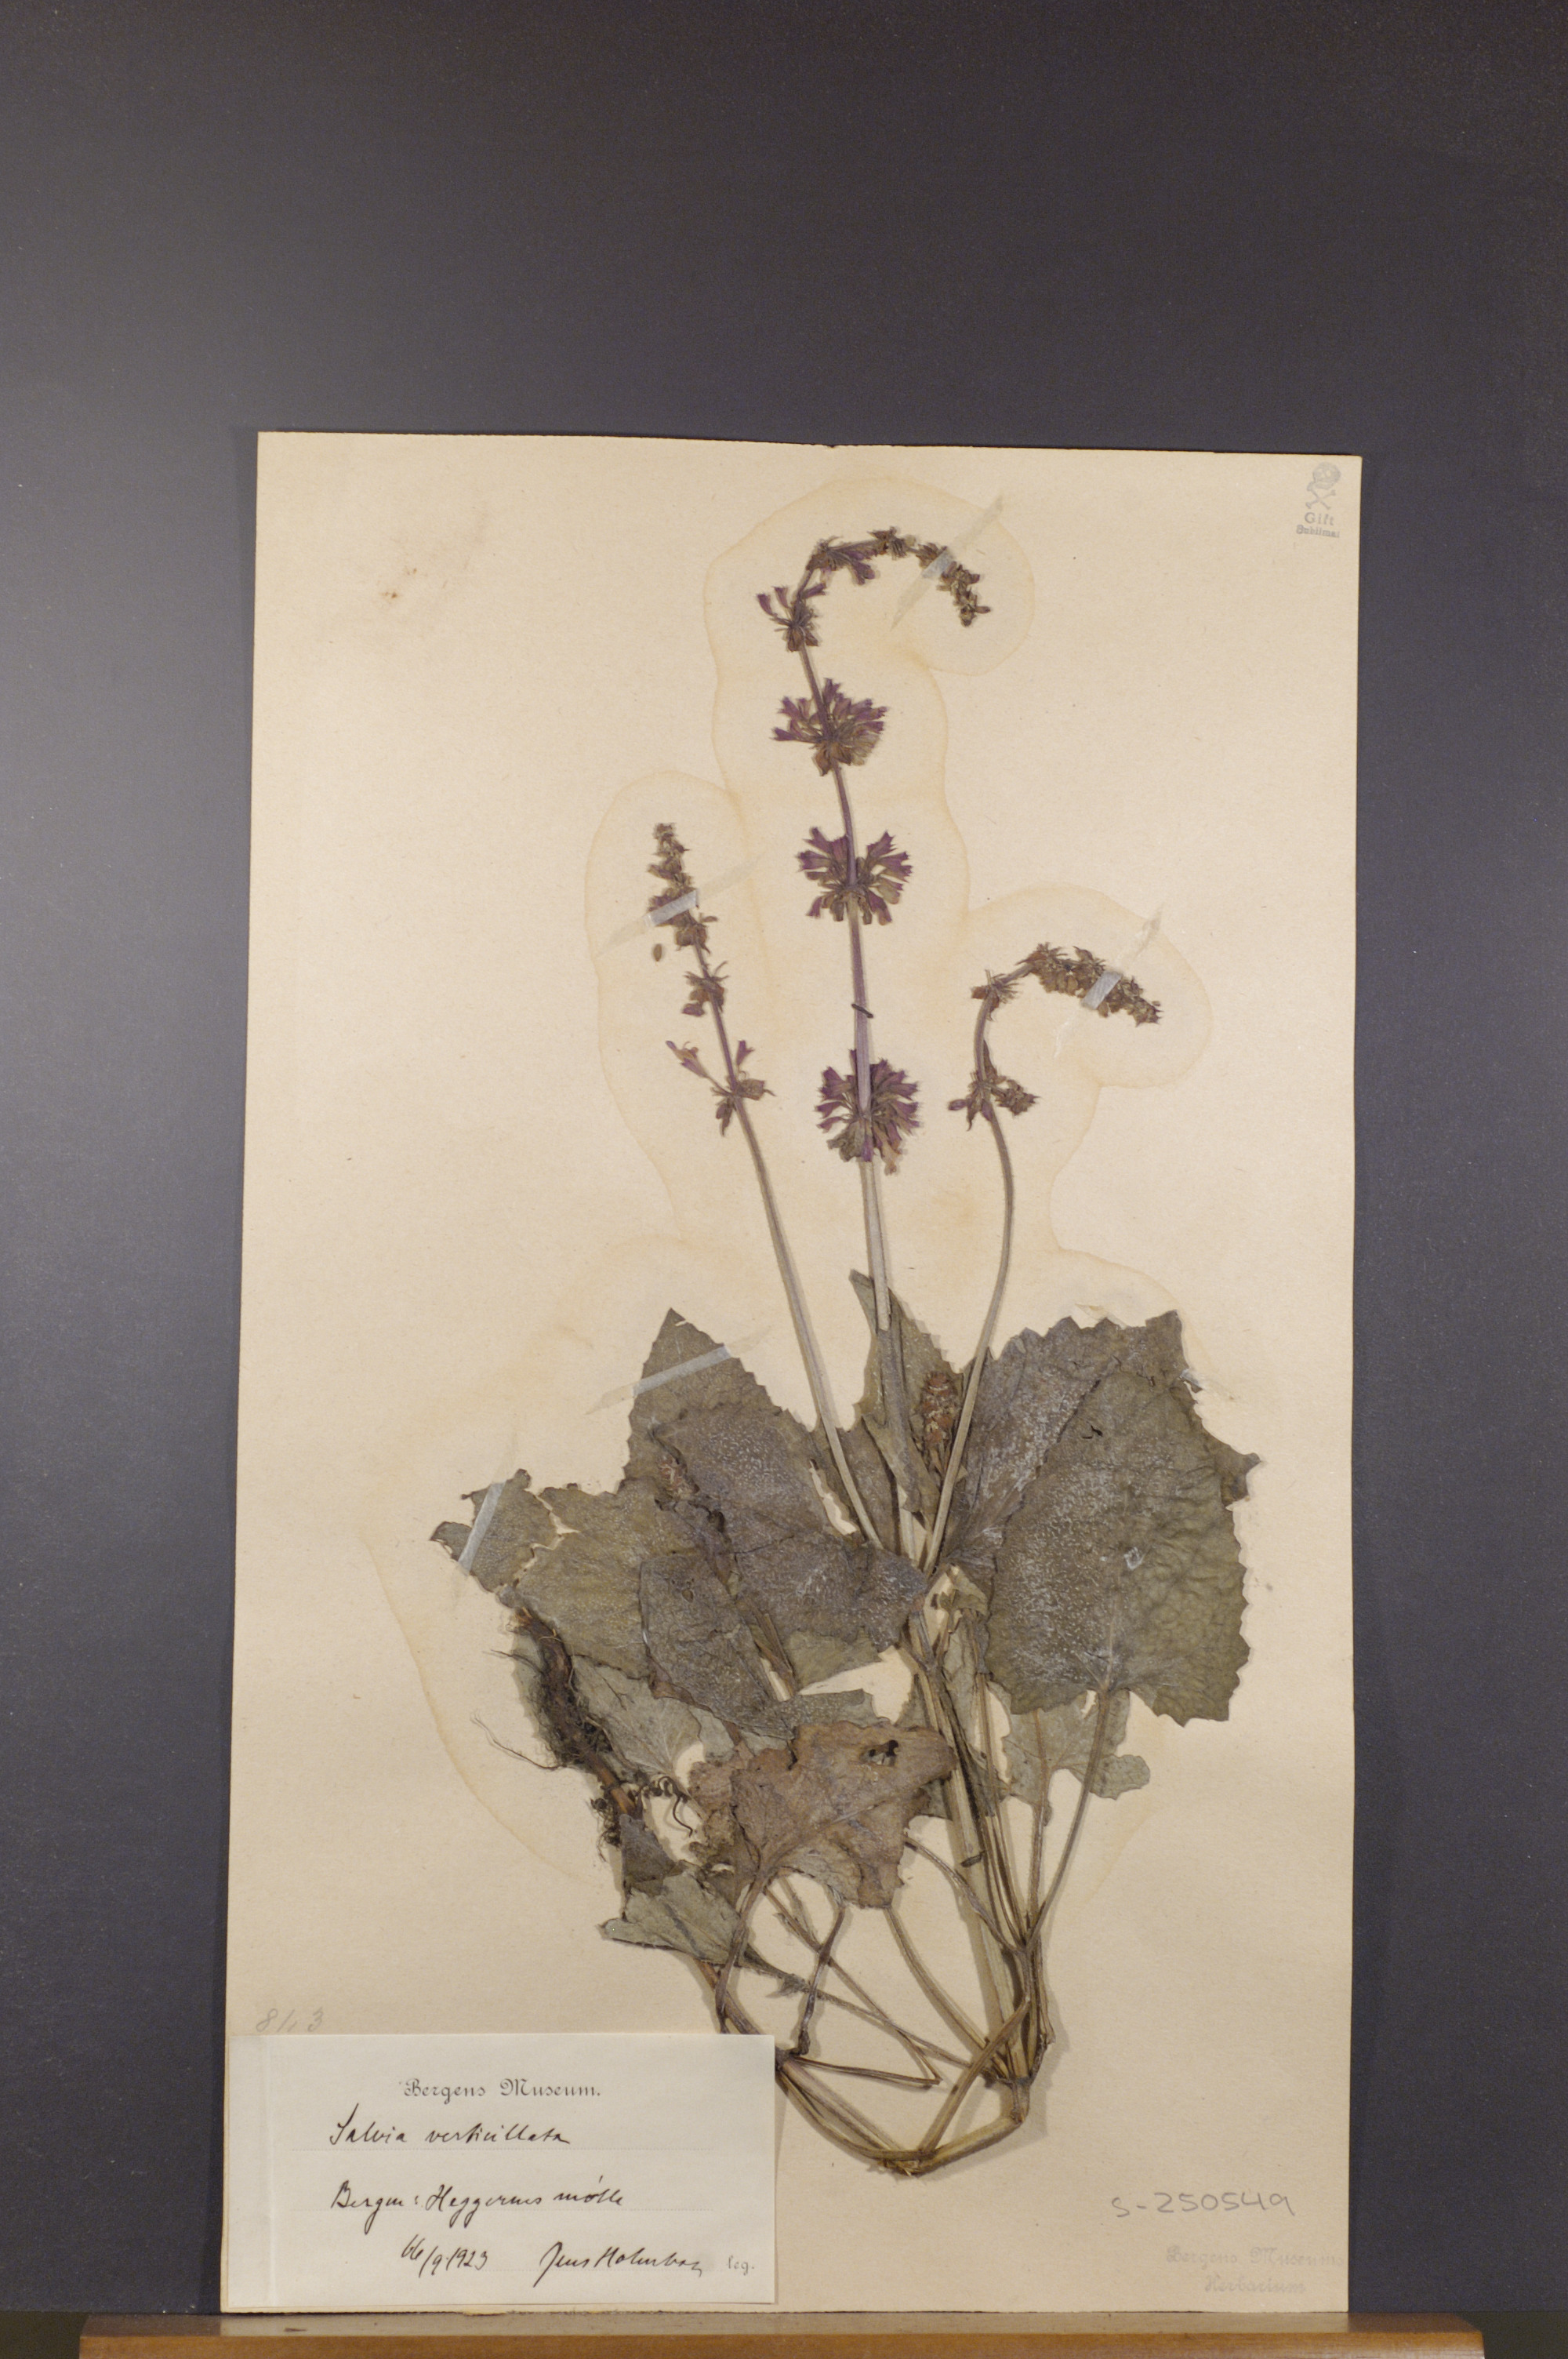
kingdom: Plantae
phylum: Tracheophyta
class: Magnoliopsida
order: Lamiales
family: Lamiaceae
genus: Salvia
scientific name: Salvia verticillata
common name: Whorled clary
